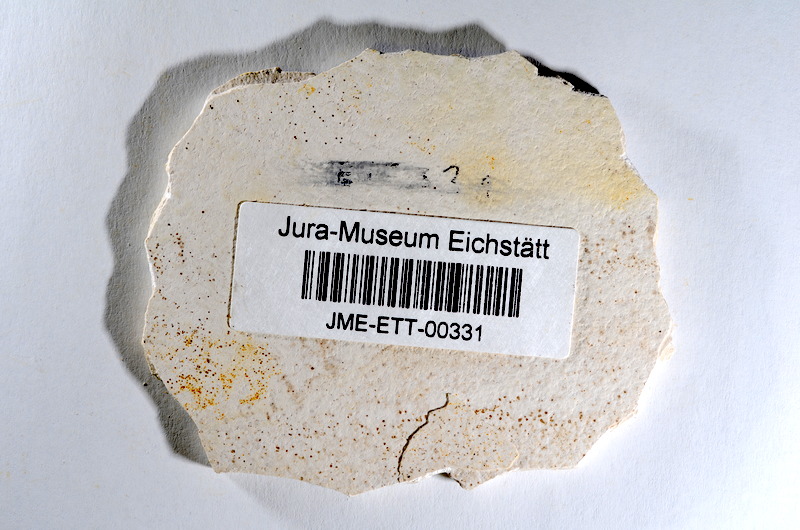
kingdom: Animalia
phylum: Chordata
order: Salmoniformes
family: Orthogonikleithridae
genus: Orthogonikleithrus
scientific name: Orthogonikleithrus hoelli
